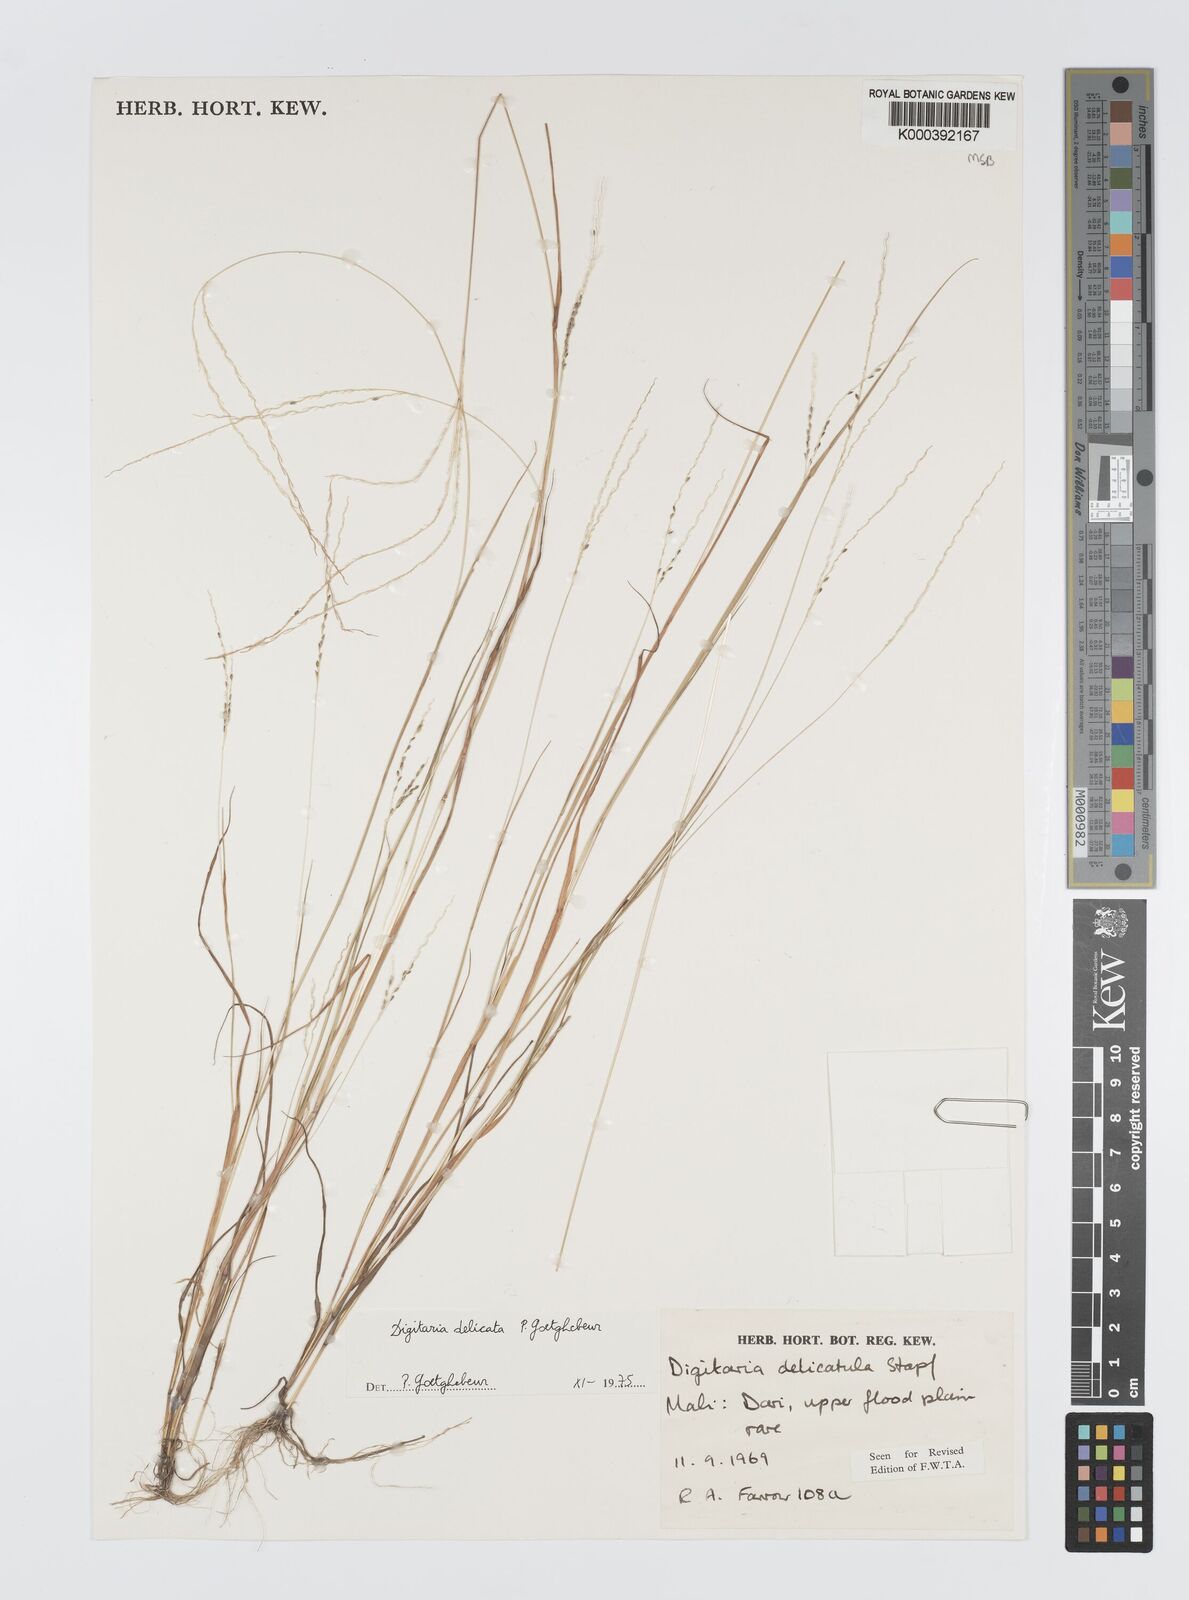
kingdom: Plantae
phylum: Tracheophyta
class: Liliopsida
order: Poales
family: Poaceae
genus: Digitaria
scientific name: Digitaria delicata
